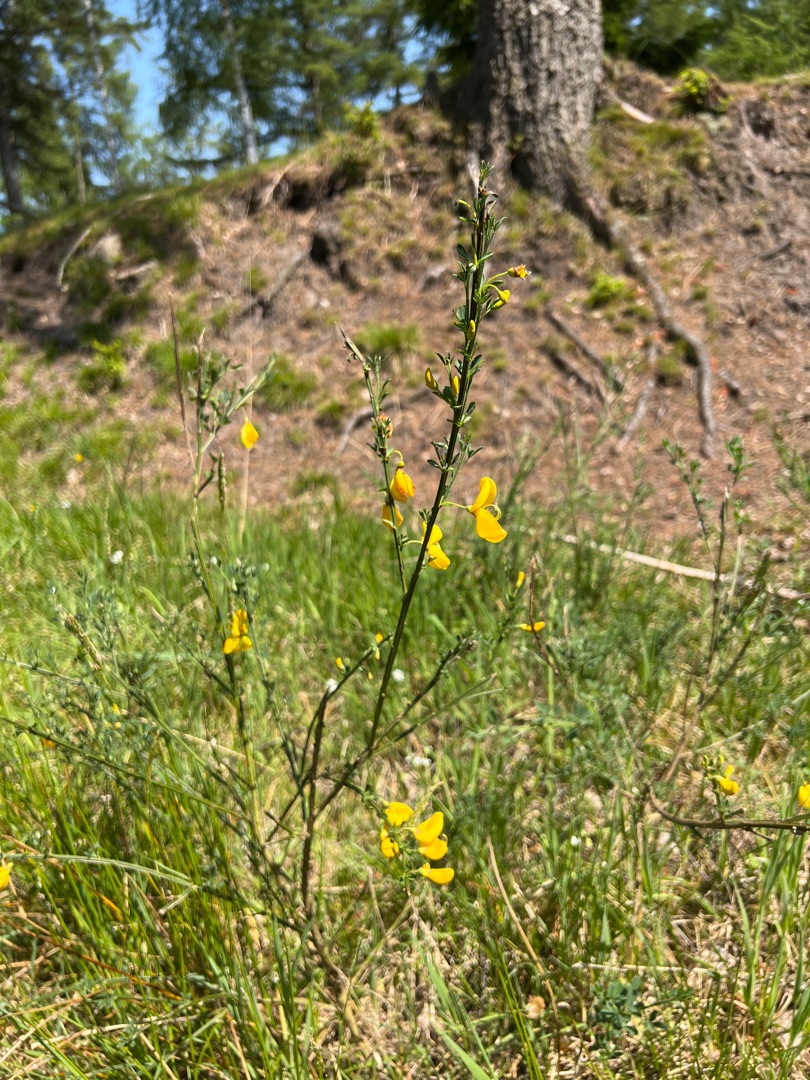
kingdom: Plantae
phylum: Tracheophyta
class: Magnoliopsida
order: Fabales
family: Fabaceae
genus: Cytisus
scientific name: Cytisus scoparius
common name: Almindelig gyvel
